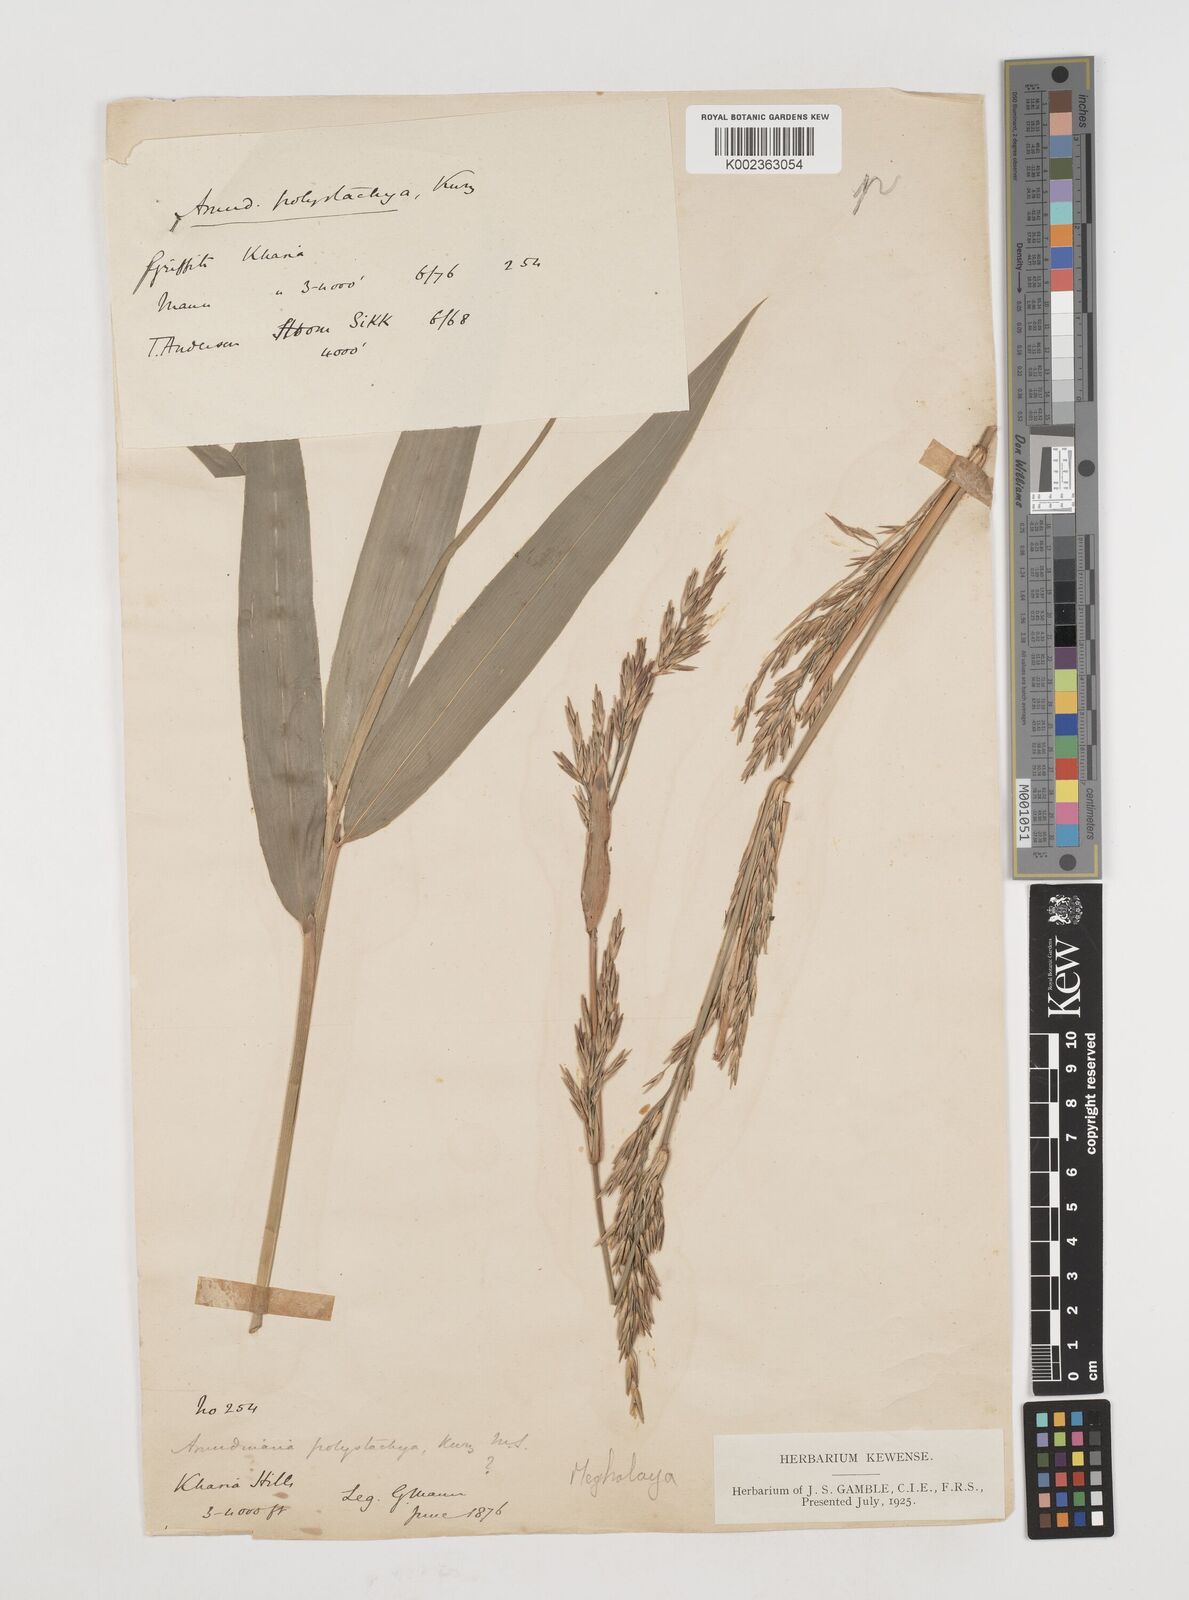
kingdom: Plantae
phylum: Tracheophyta
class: Liliopsida
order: Poales
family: Poaceae
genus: Drepanostachyum
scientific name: Drepanostachyum polystachyum
